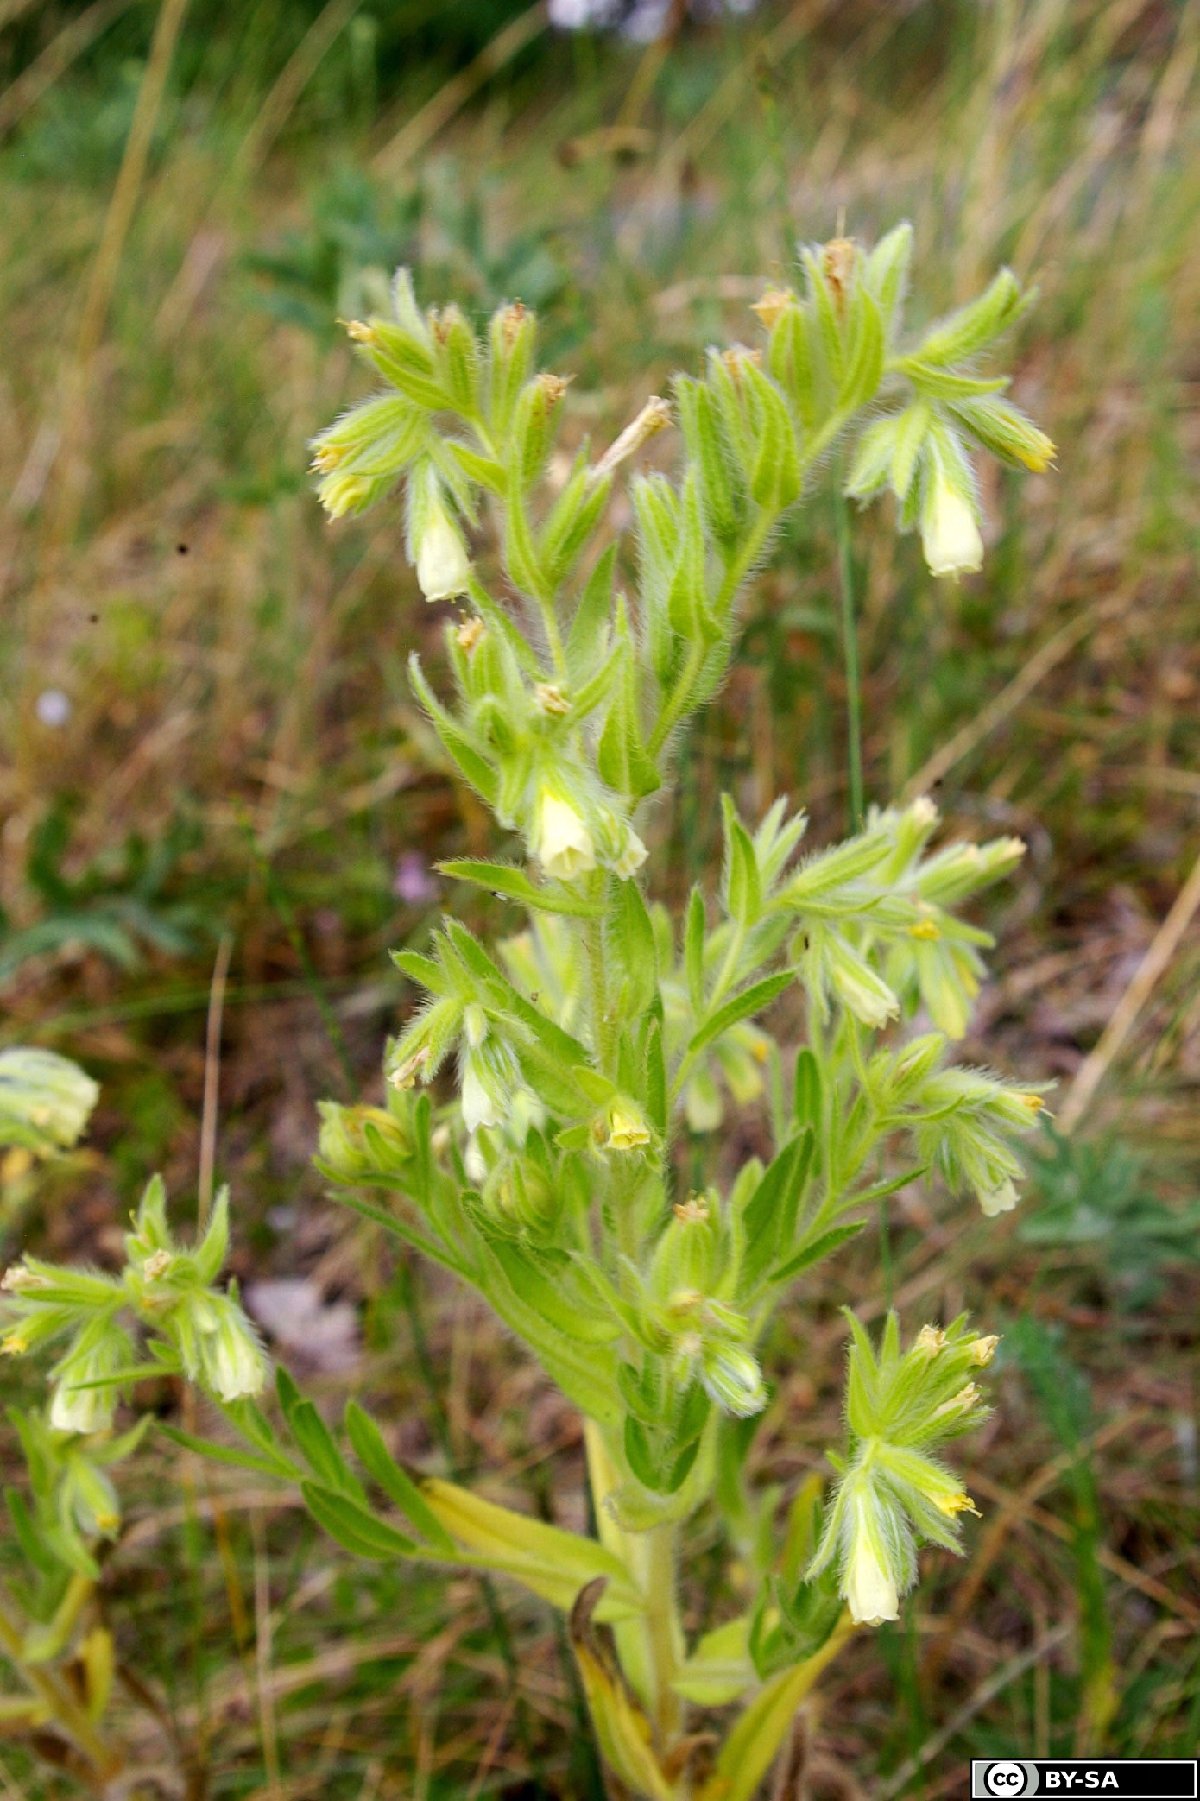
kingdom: Plantae
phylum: Tracheophyta
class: Magnoliopsida
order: Boraginales
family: Boraginaceae
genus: Onosma
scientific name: Onosma arenaria
